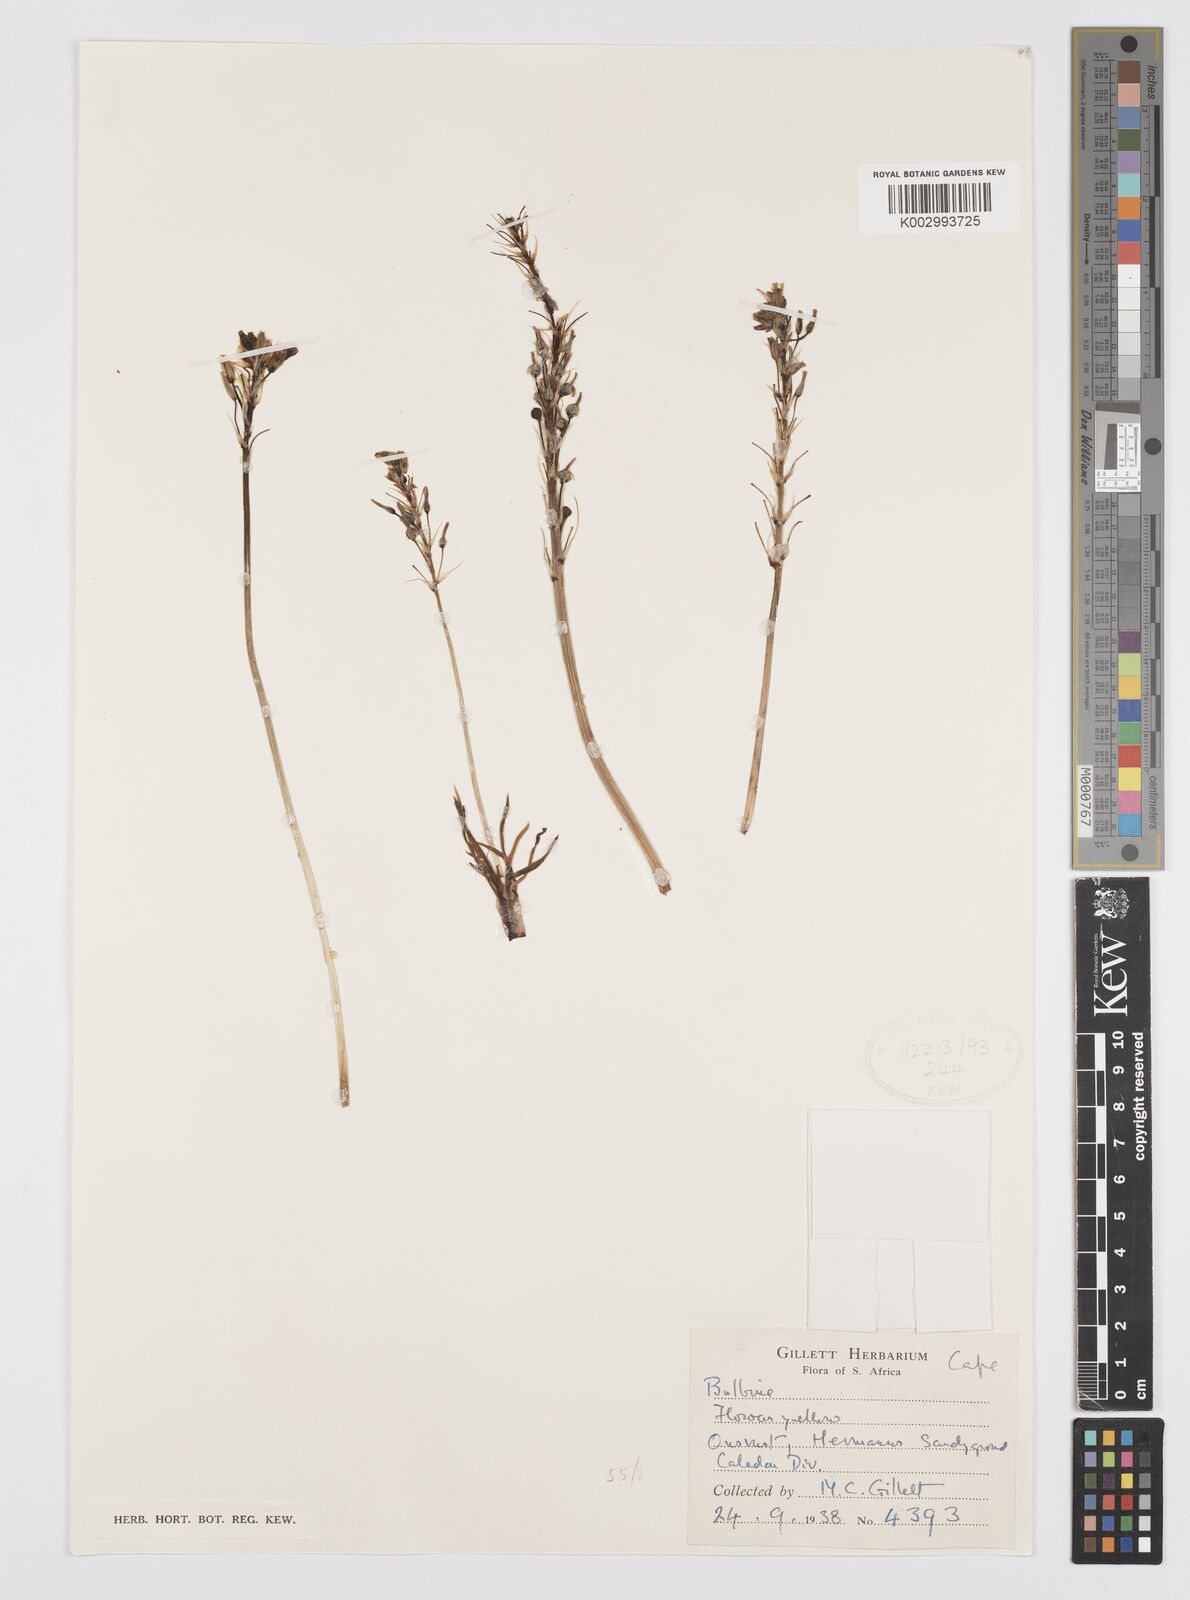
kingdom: Plantae
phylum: Tracheophyta
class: Liliopsida
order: Asparagales
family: Amaryllidaceae
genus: Crinum
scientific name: Crinum
